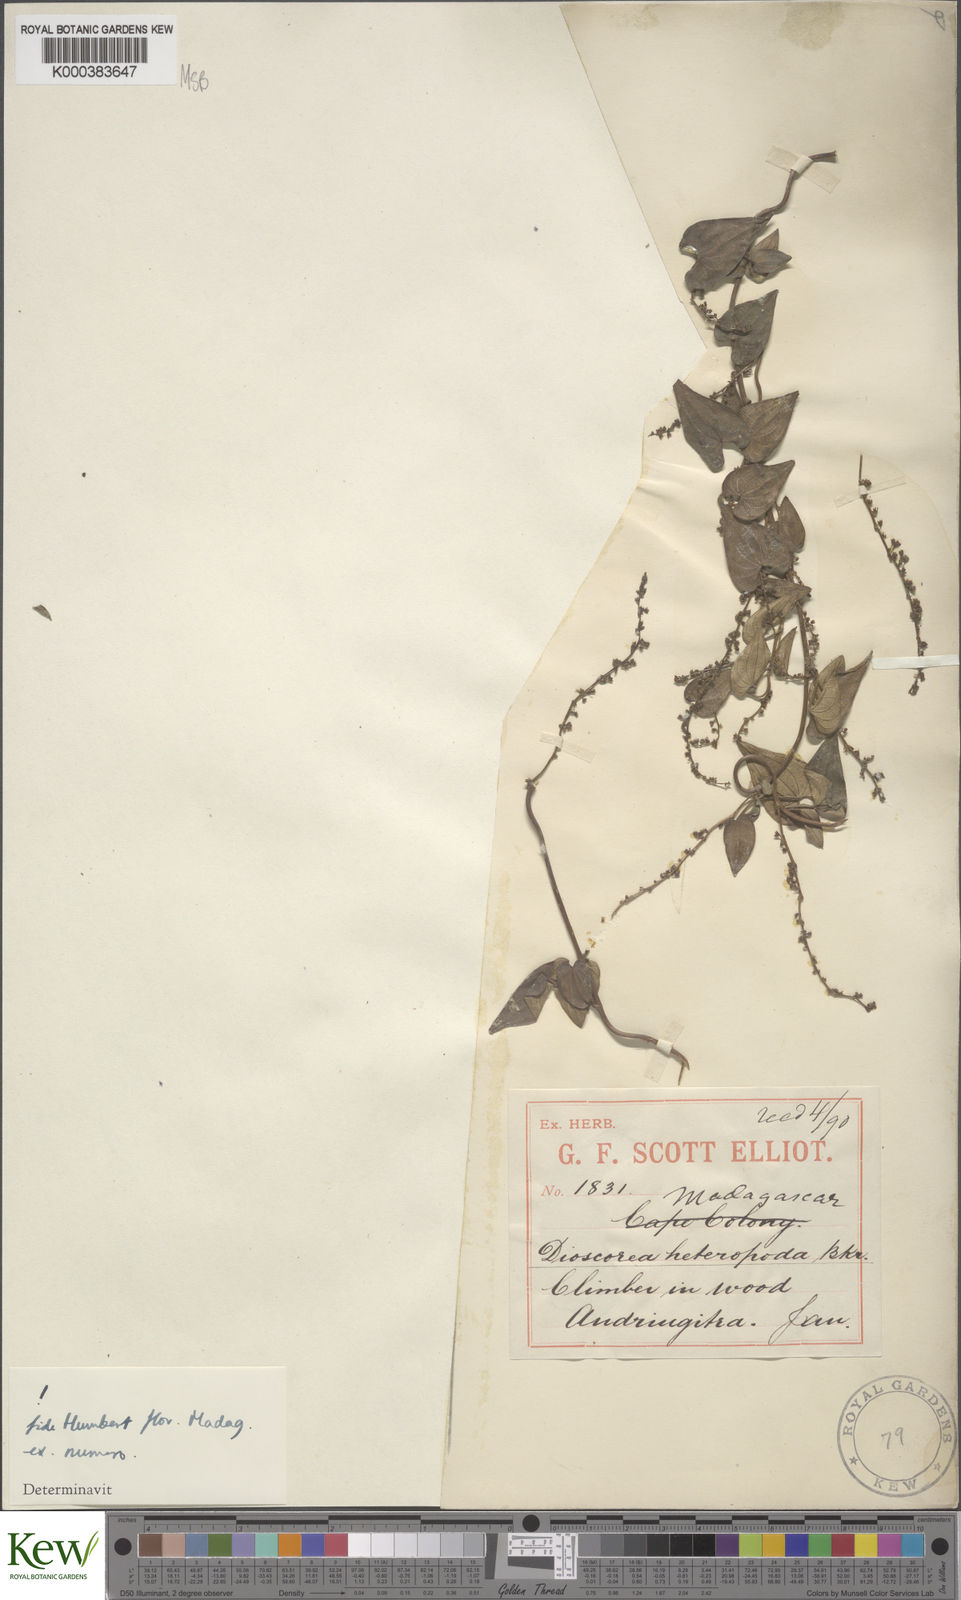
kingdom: Plantae
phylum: Tracheophyta
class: Liliopsida
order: Dioscoreales
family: Dioscoreaceae
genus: Dioscorea
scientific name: Dioscorea heteropoda
